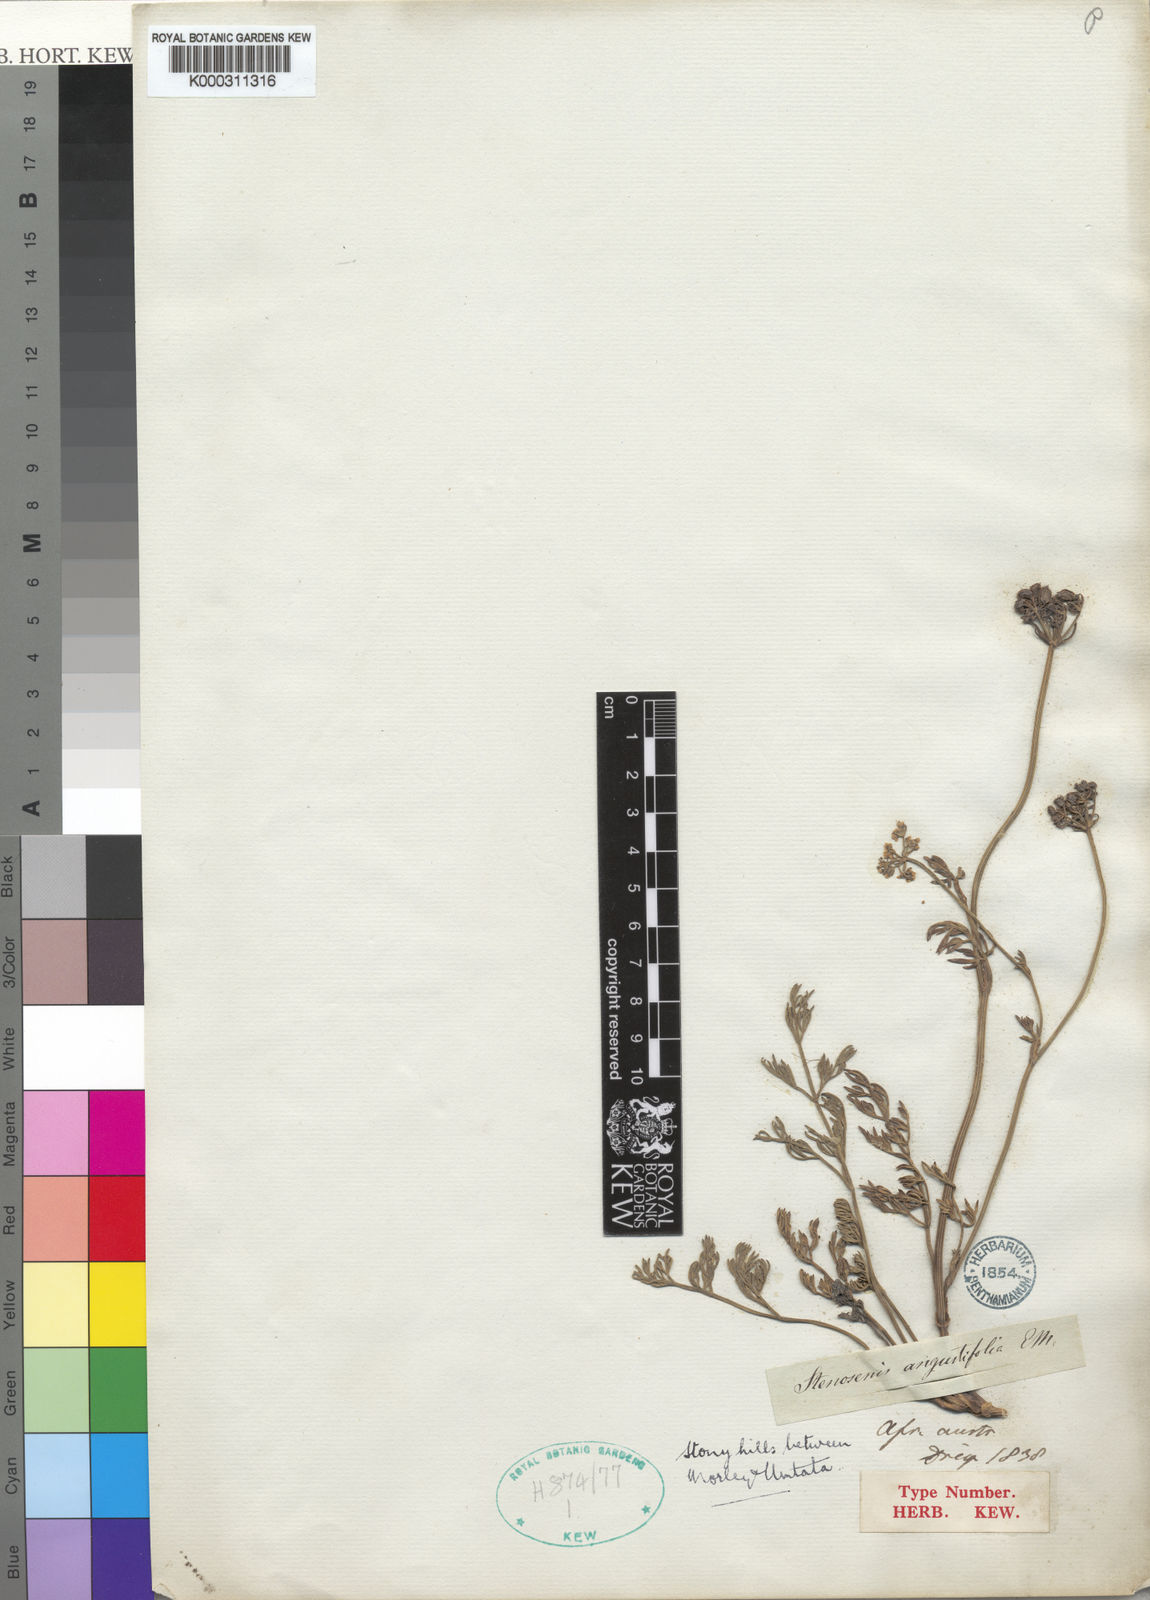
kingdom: Plantae
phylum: Tracheophyta
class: Magnoliopsida
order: Apiales
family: Apiaceae
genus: Stenosemis
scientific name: Stenosemis angustifolia
